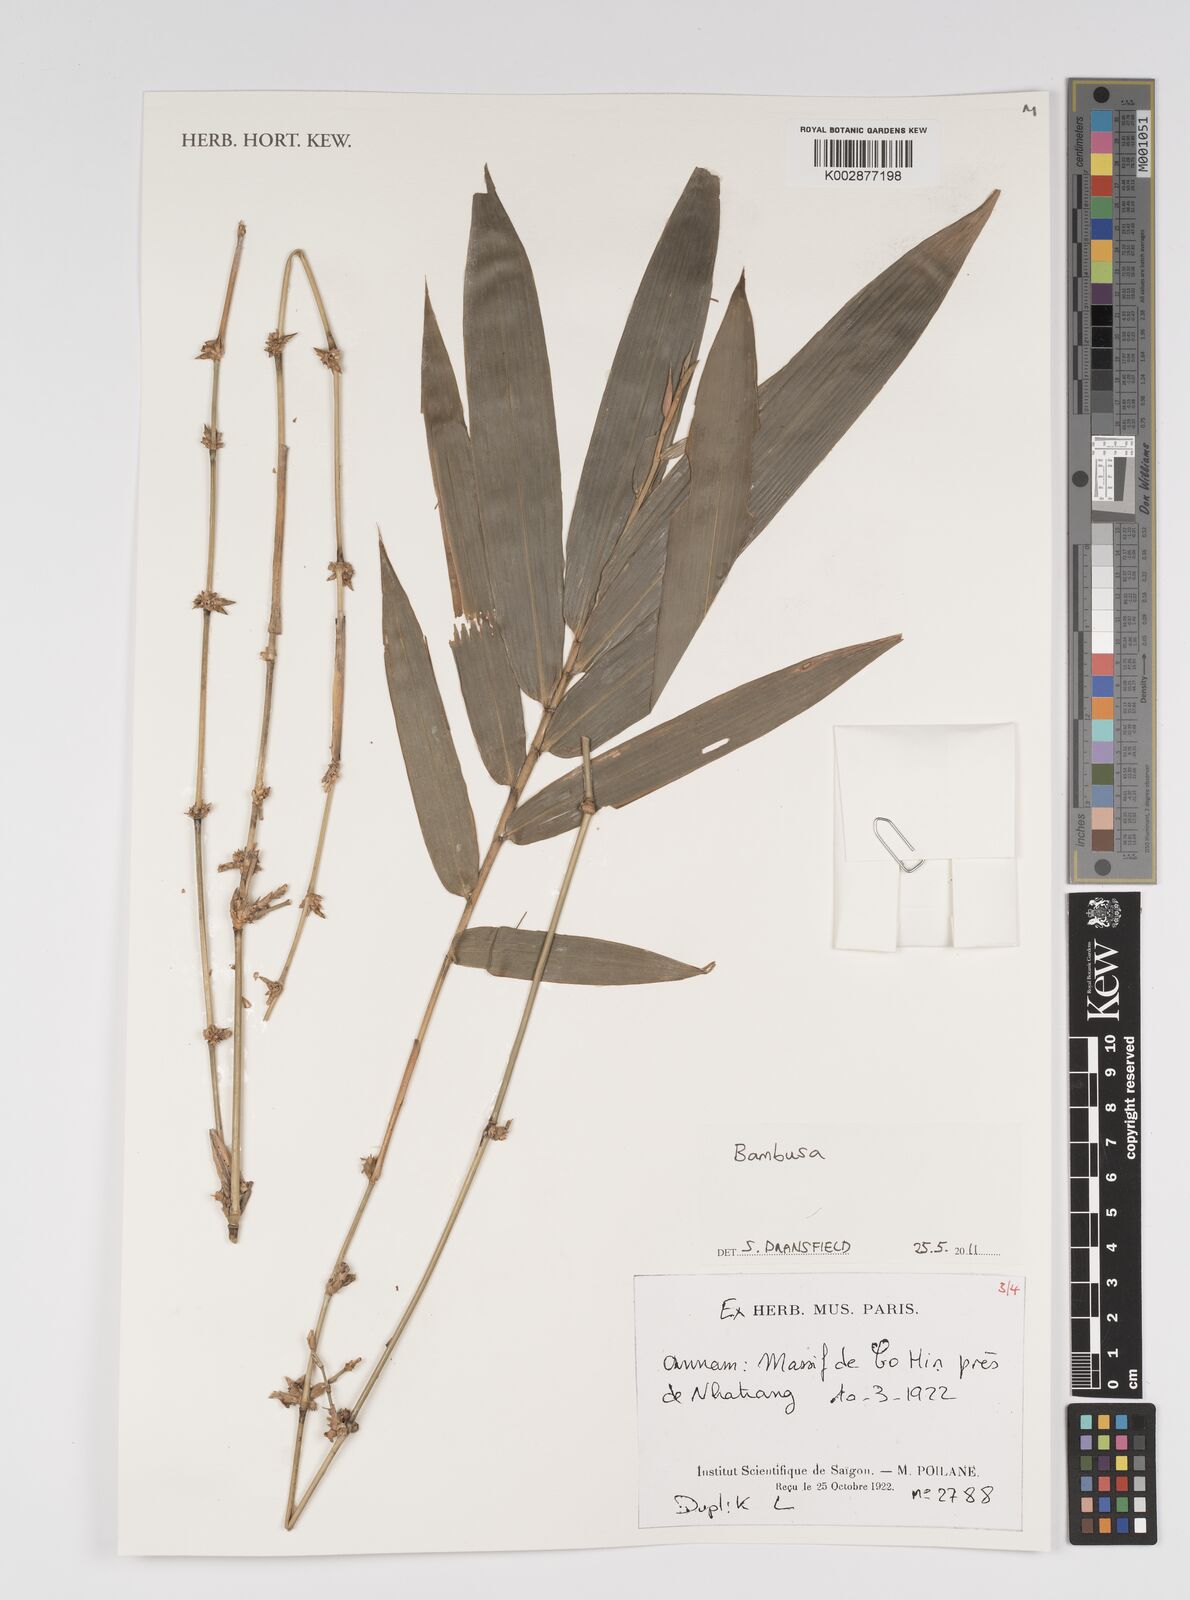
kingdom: Plantae
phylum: Tracheophyta
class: Liliopsida
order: Poales
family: Poaceae
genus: Bambusa
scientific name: Bambusa
